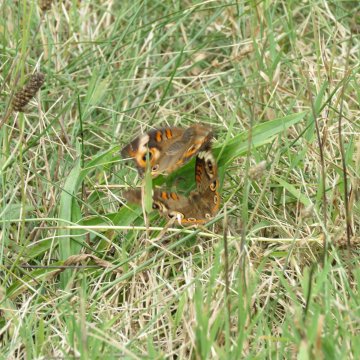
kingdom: Animalia
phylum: Arthropoda
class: Insecta
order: Lepidoptera
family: Nymphalidae
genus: Junonia
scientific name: Junonia coenia
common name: Common Buckeye
